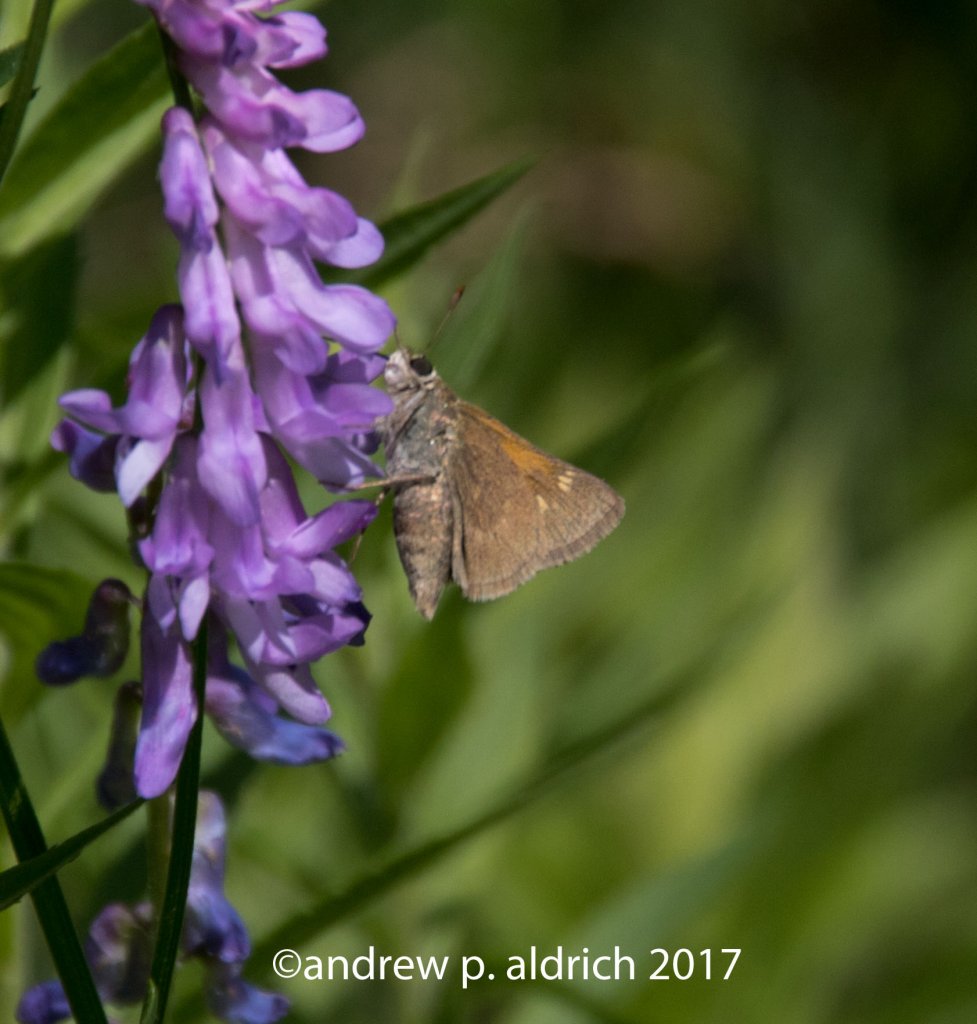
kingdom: Animalia
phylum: Arthropoda
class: Insecta
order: Lepidoptera
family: Hesperiidae
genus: Polites
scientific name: Polites
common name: Crossline Skipper
